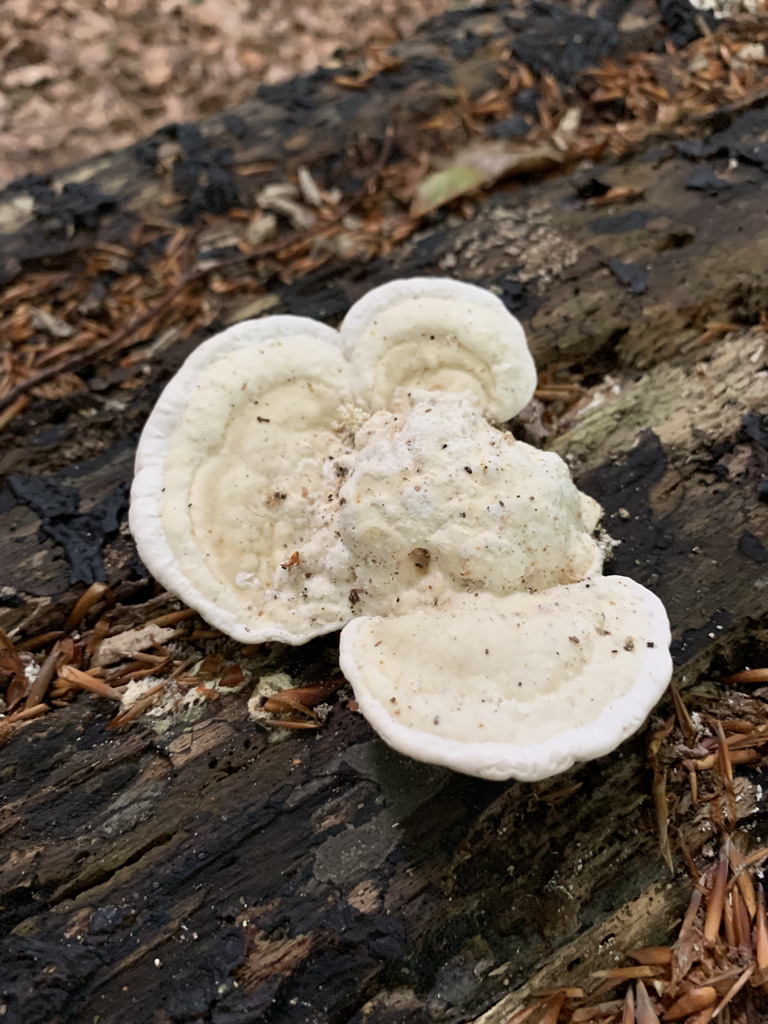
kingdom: Fungi
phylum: Basidiomycota
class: Agaricomycetes
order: Polyporales
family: Polyporaceae
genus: Trametes
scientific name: Trametes gibbosa
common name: puklet læderporesvamp
